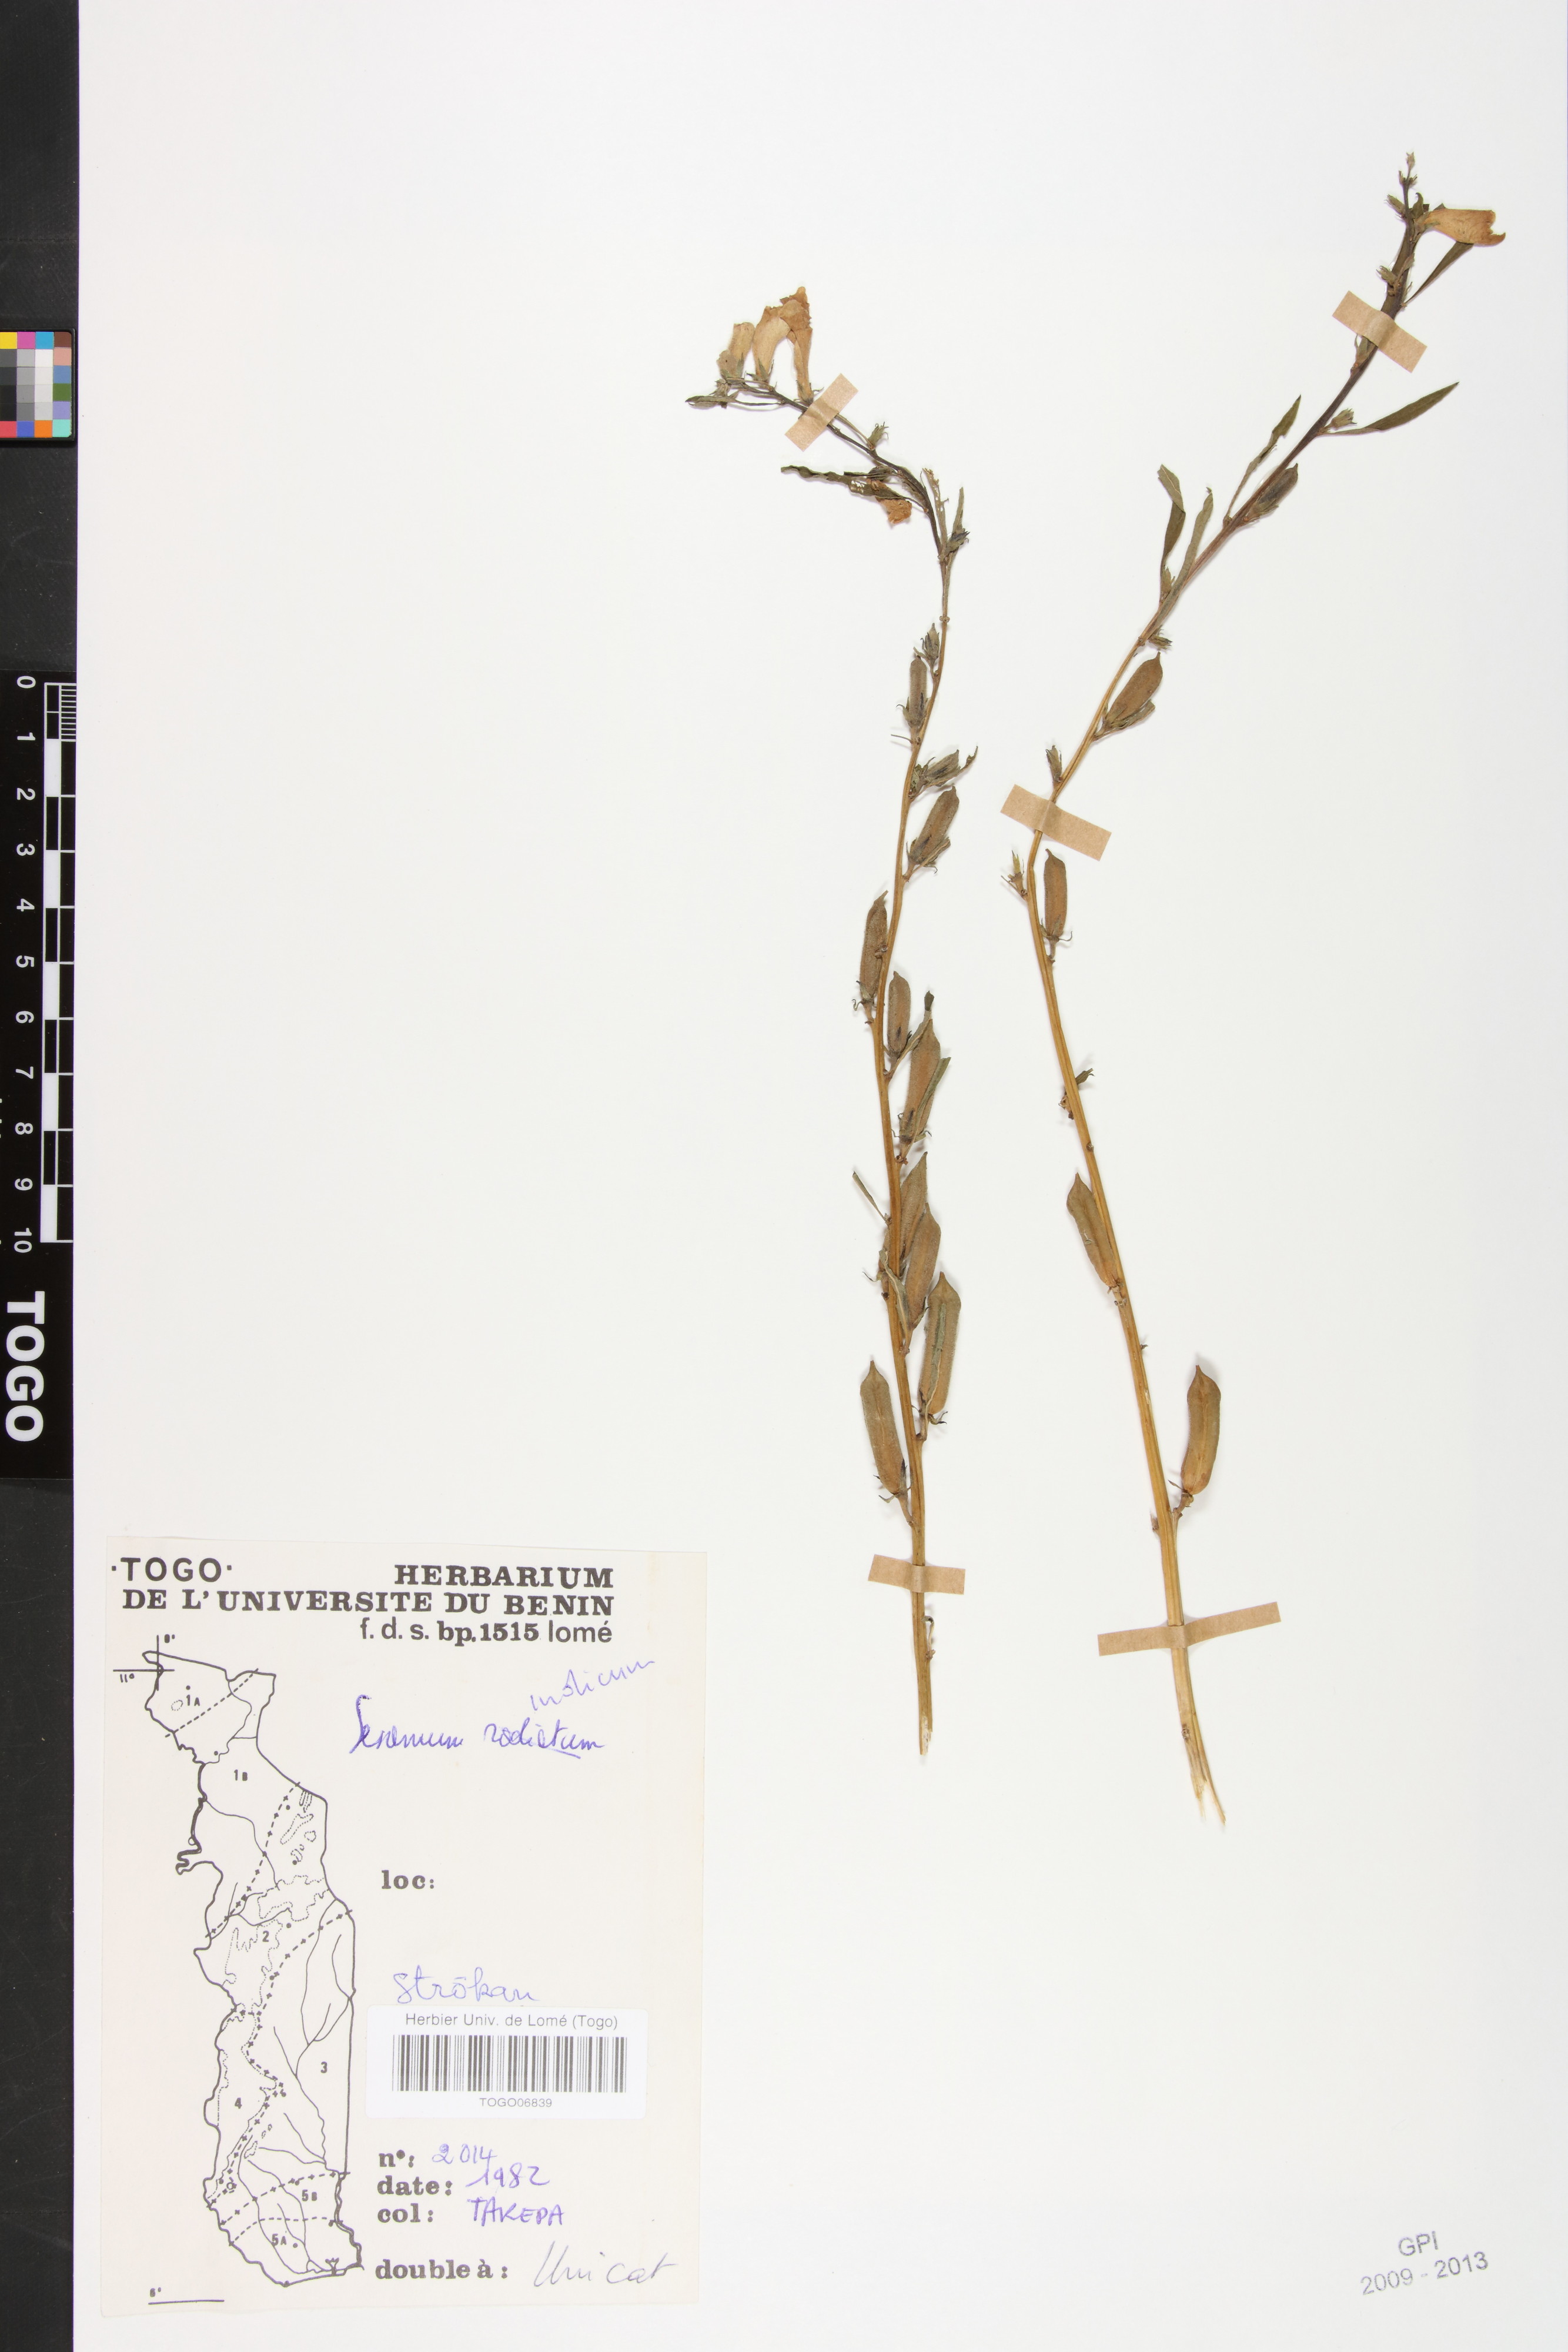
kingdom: Plantae
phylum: Tracheophyta
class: Magnoliopsida
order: Lamiales
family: Pedaliaceae
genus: Sesamum
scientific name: Sesamum indicum
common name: Sesame
